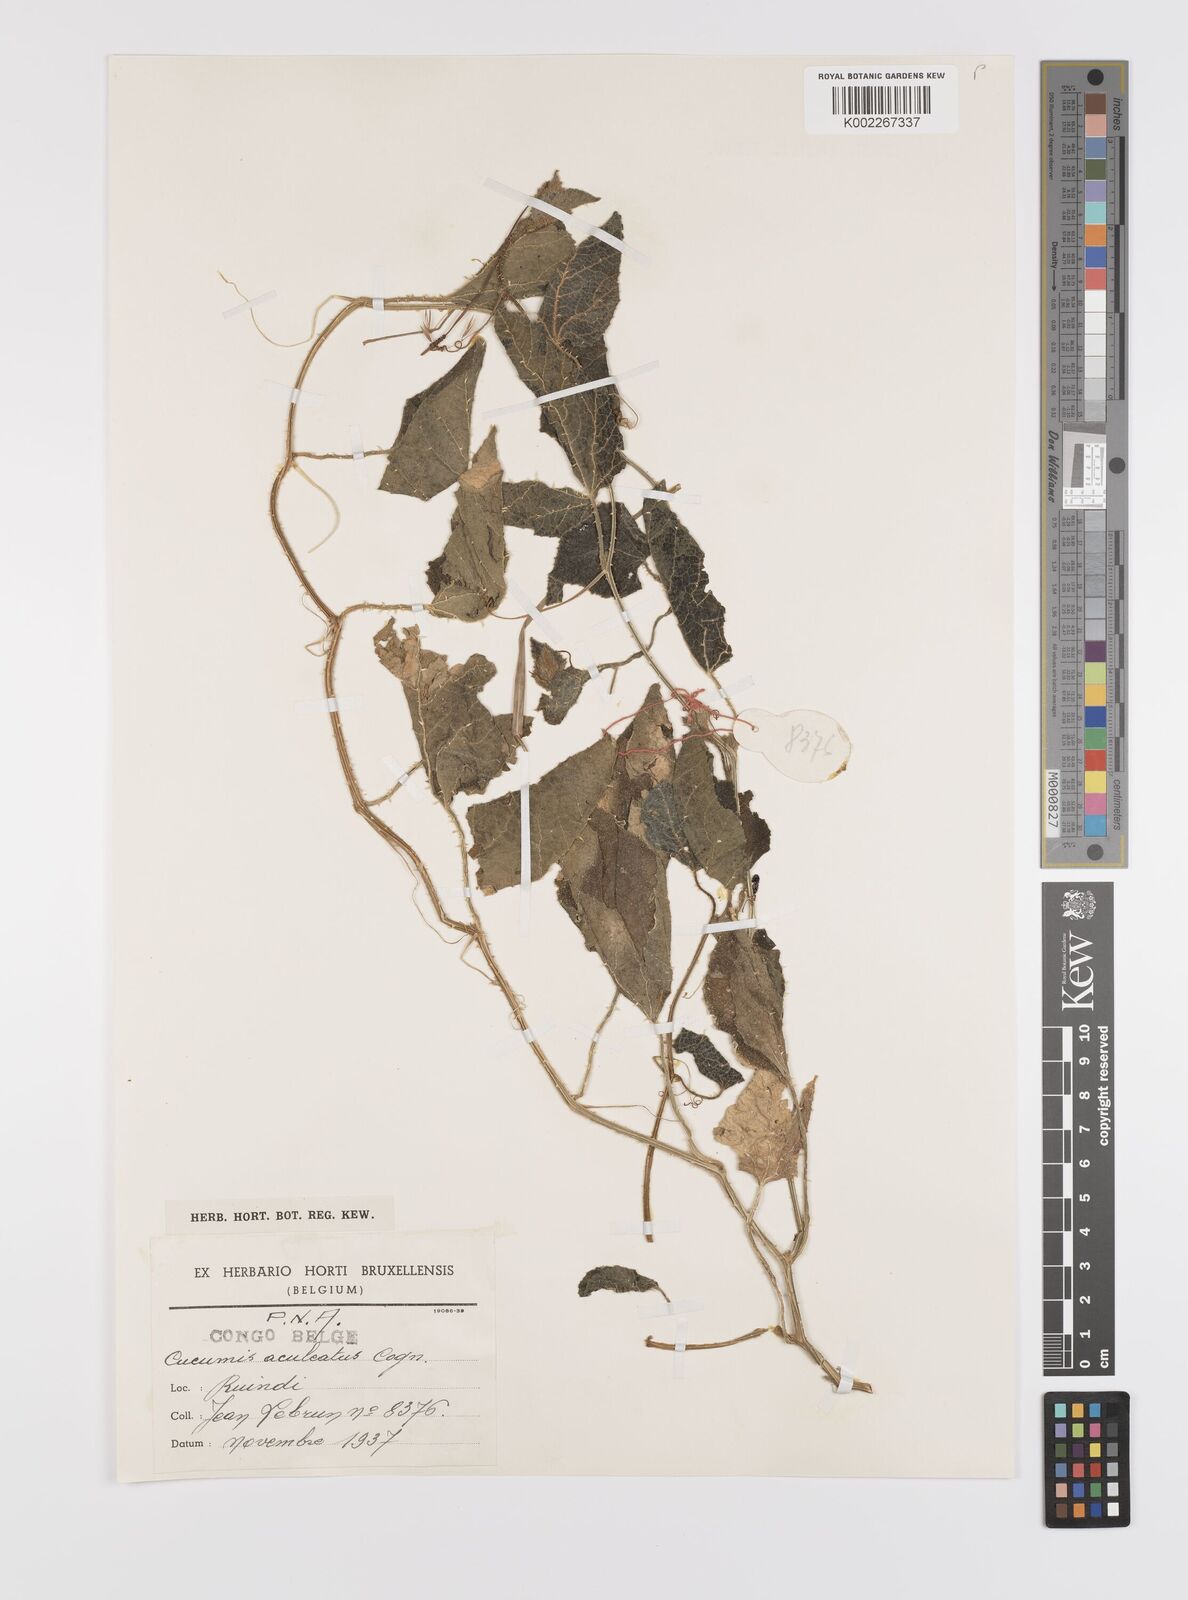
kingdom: Plantae
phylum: Tracheophyta
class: Magnoliopsida
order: Cucurbitales
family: Cucurbitaceae
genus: Cucumis
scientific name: Cucumis aculeatus
